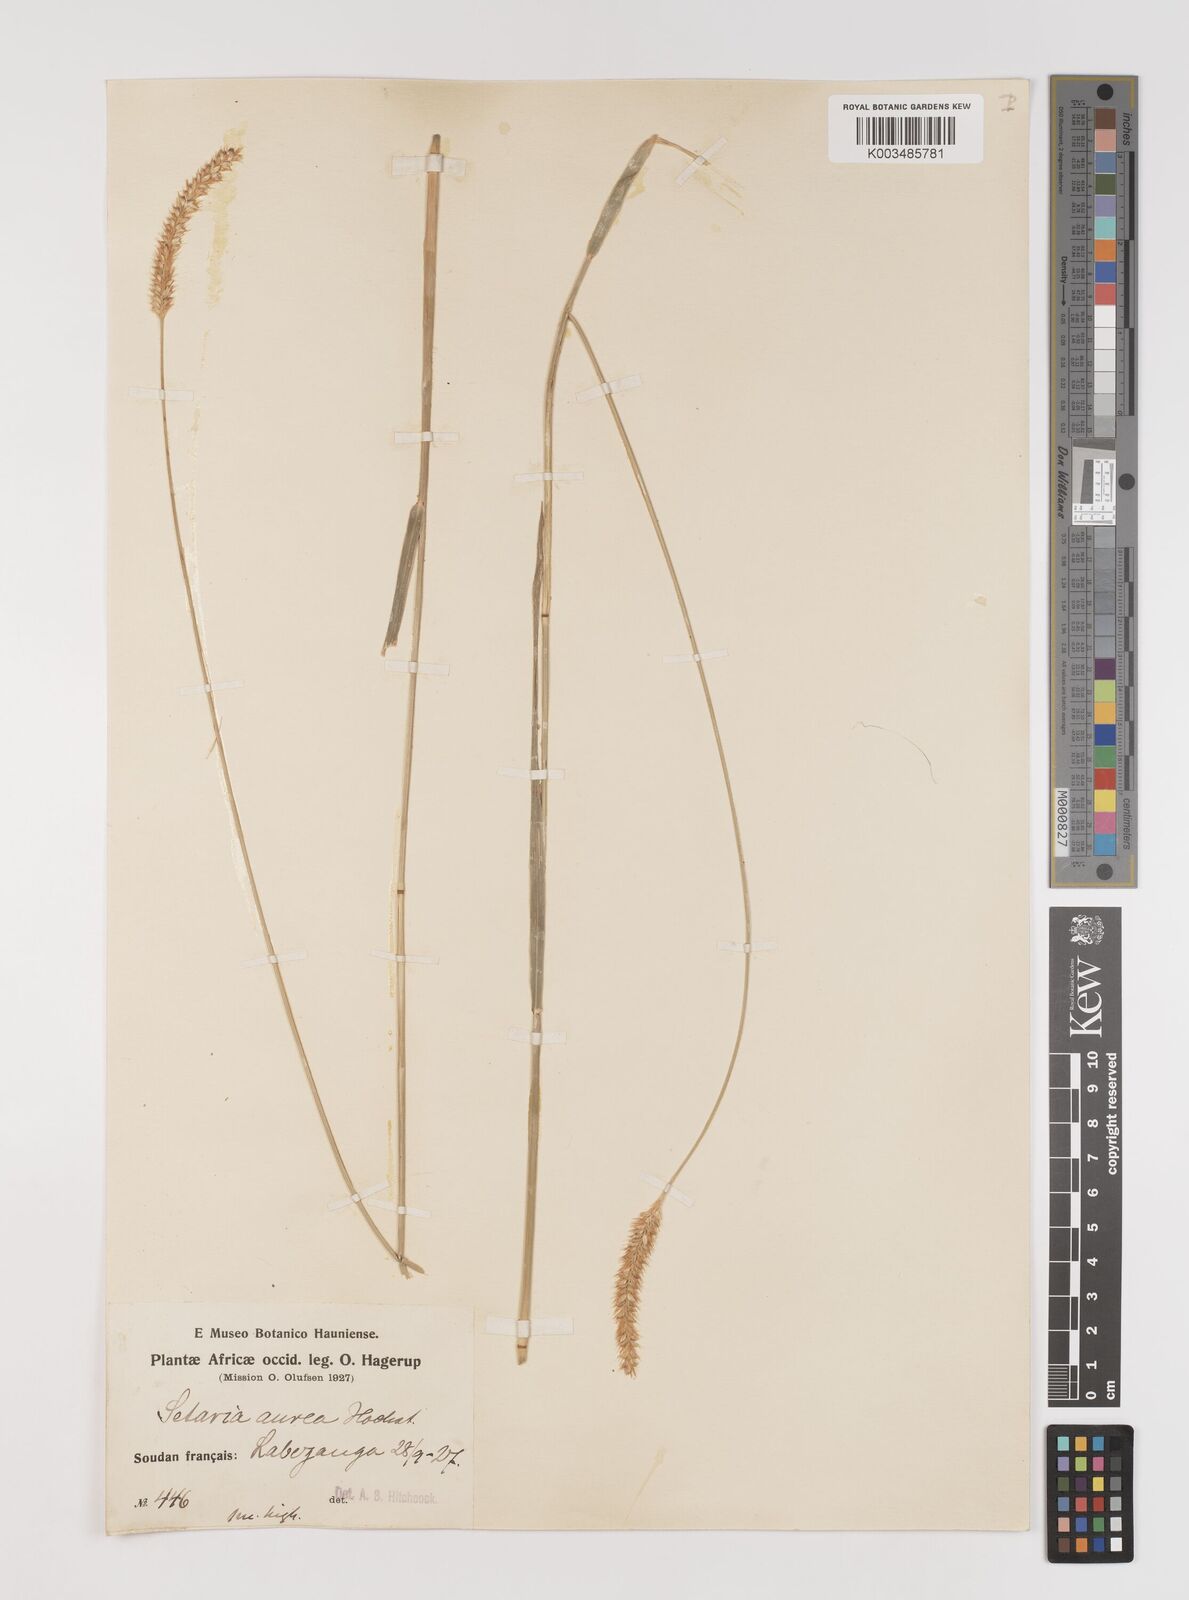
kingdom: Plantae
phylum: Tracheophyta
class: Liliopsida
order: Poales
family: Poaceae
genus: Setaria
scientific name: Setaria sphacelata
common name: African bristlegrass
